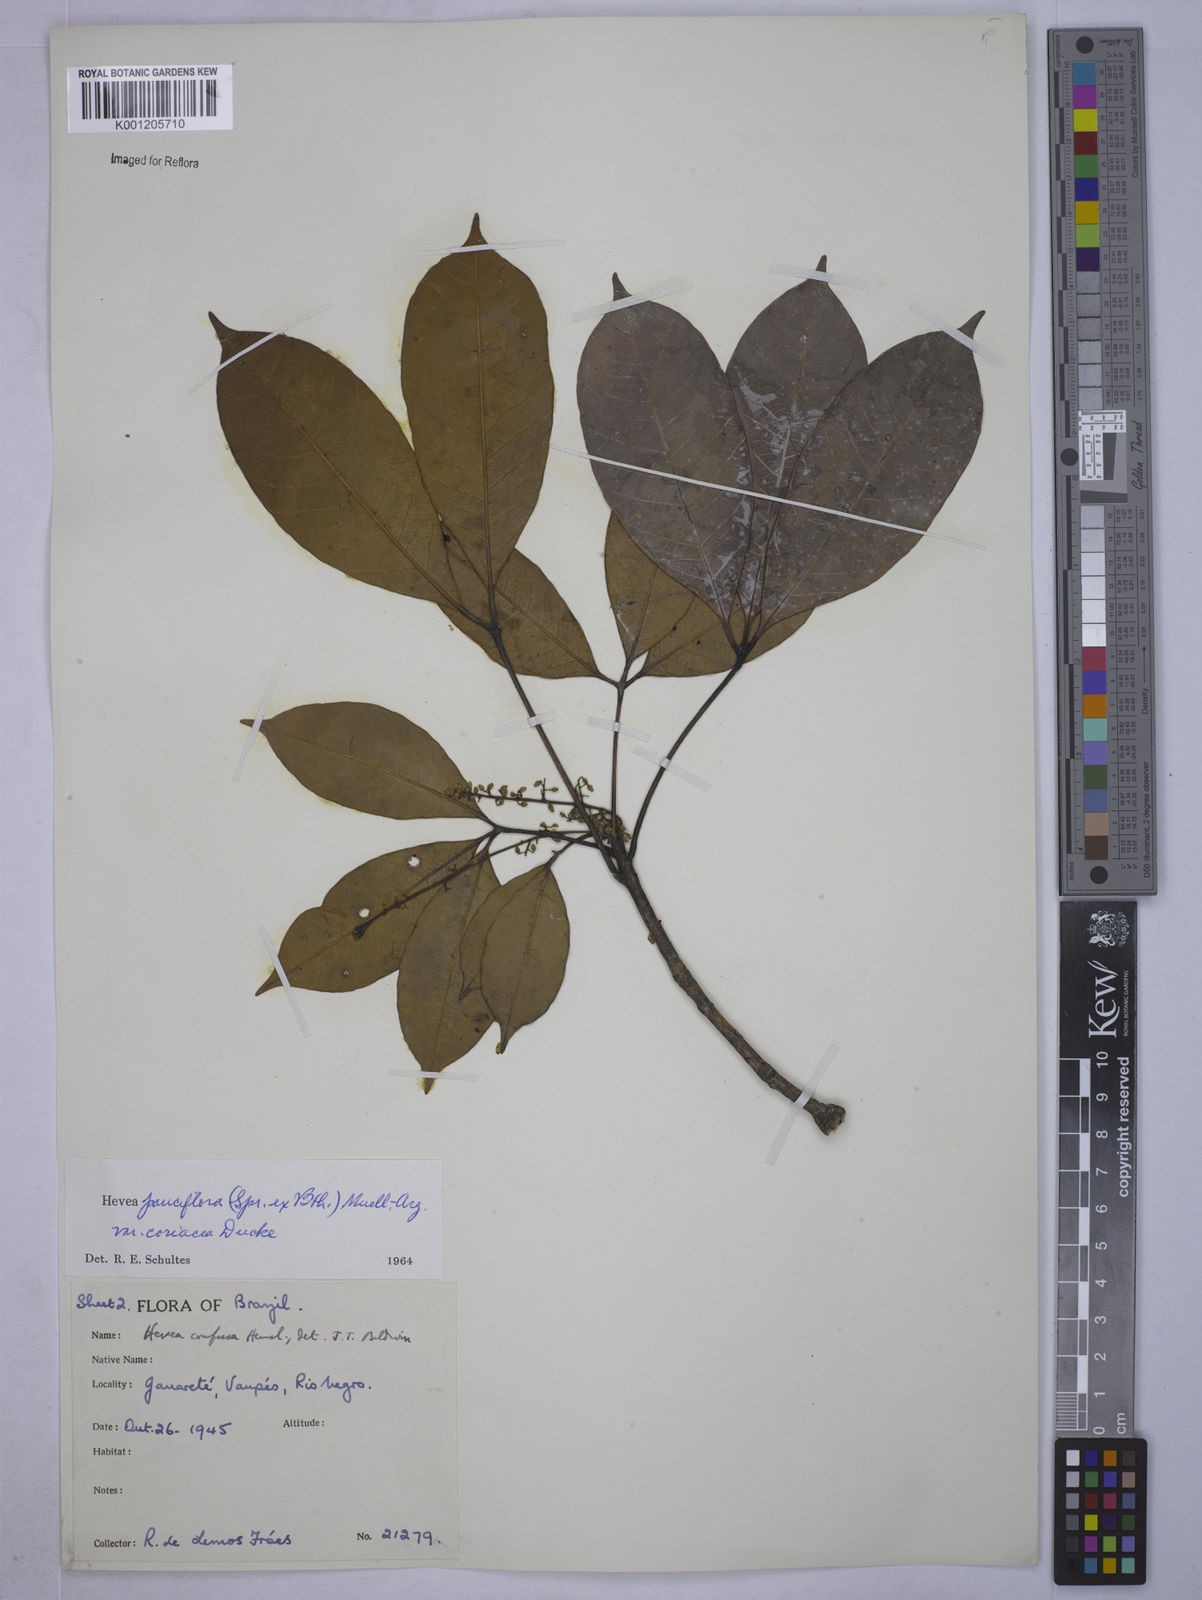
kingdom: Plantae
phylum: Tracheophyta
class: Magnoliopsida
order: Malpighiales
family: Euphorbiaceae
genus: Hevea
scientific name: Hevea pauciflora
